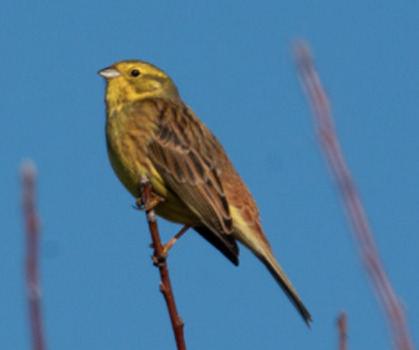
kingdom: Animalia
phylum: Chordata
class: Aves
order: Passeriformes
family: Emberizidae
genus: Emberiza
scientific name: Emberiza citrinella
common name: Gulspurv
